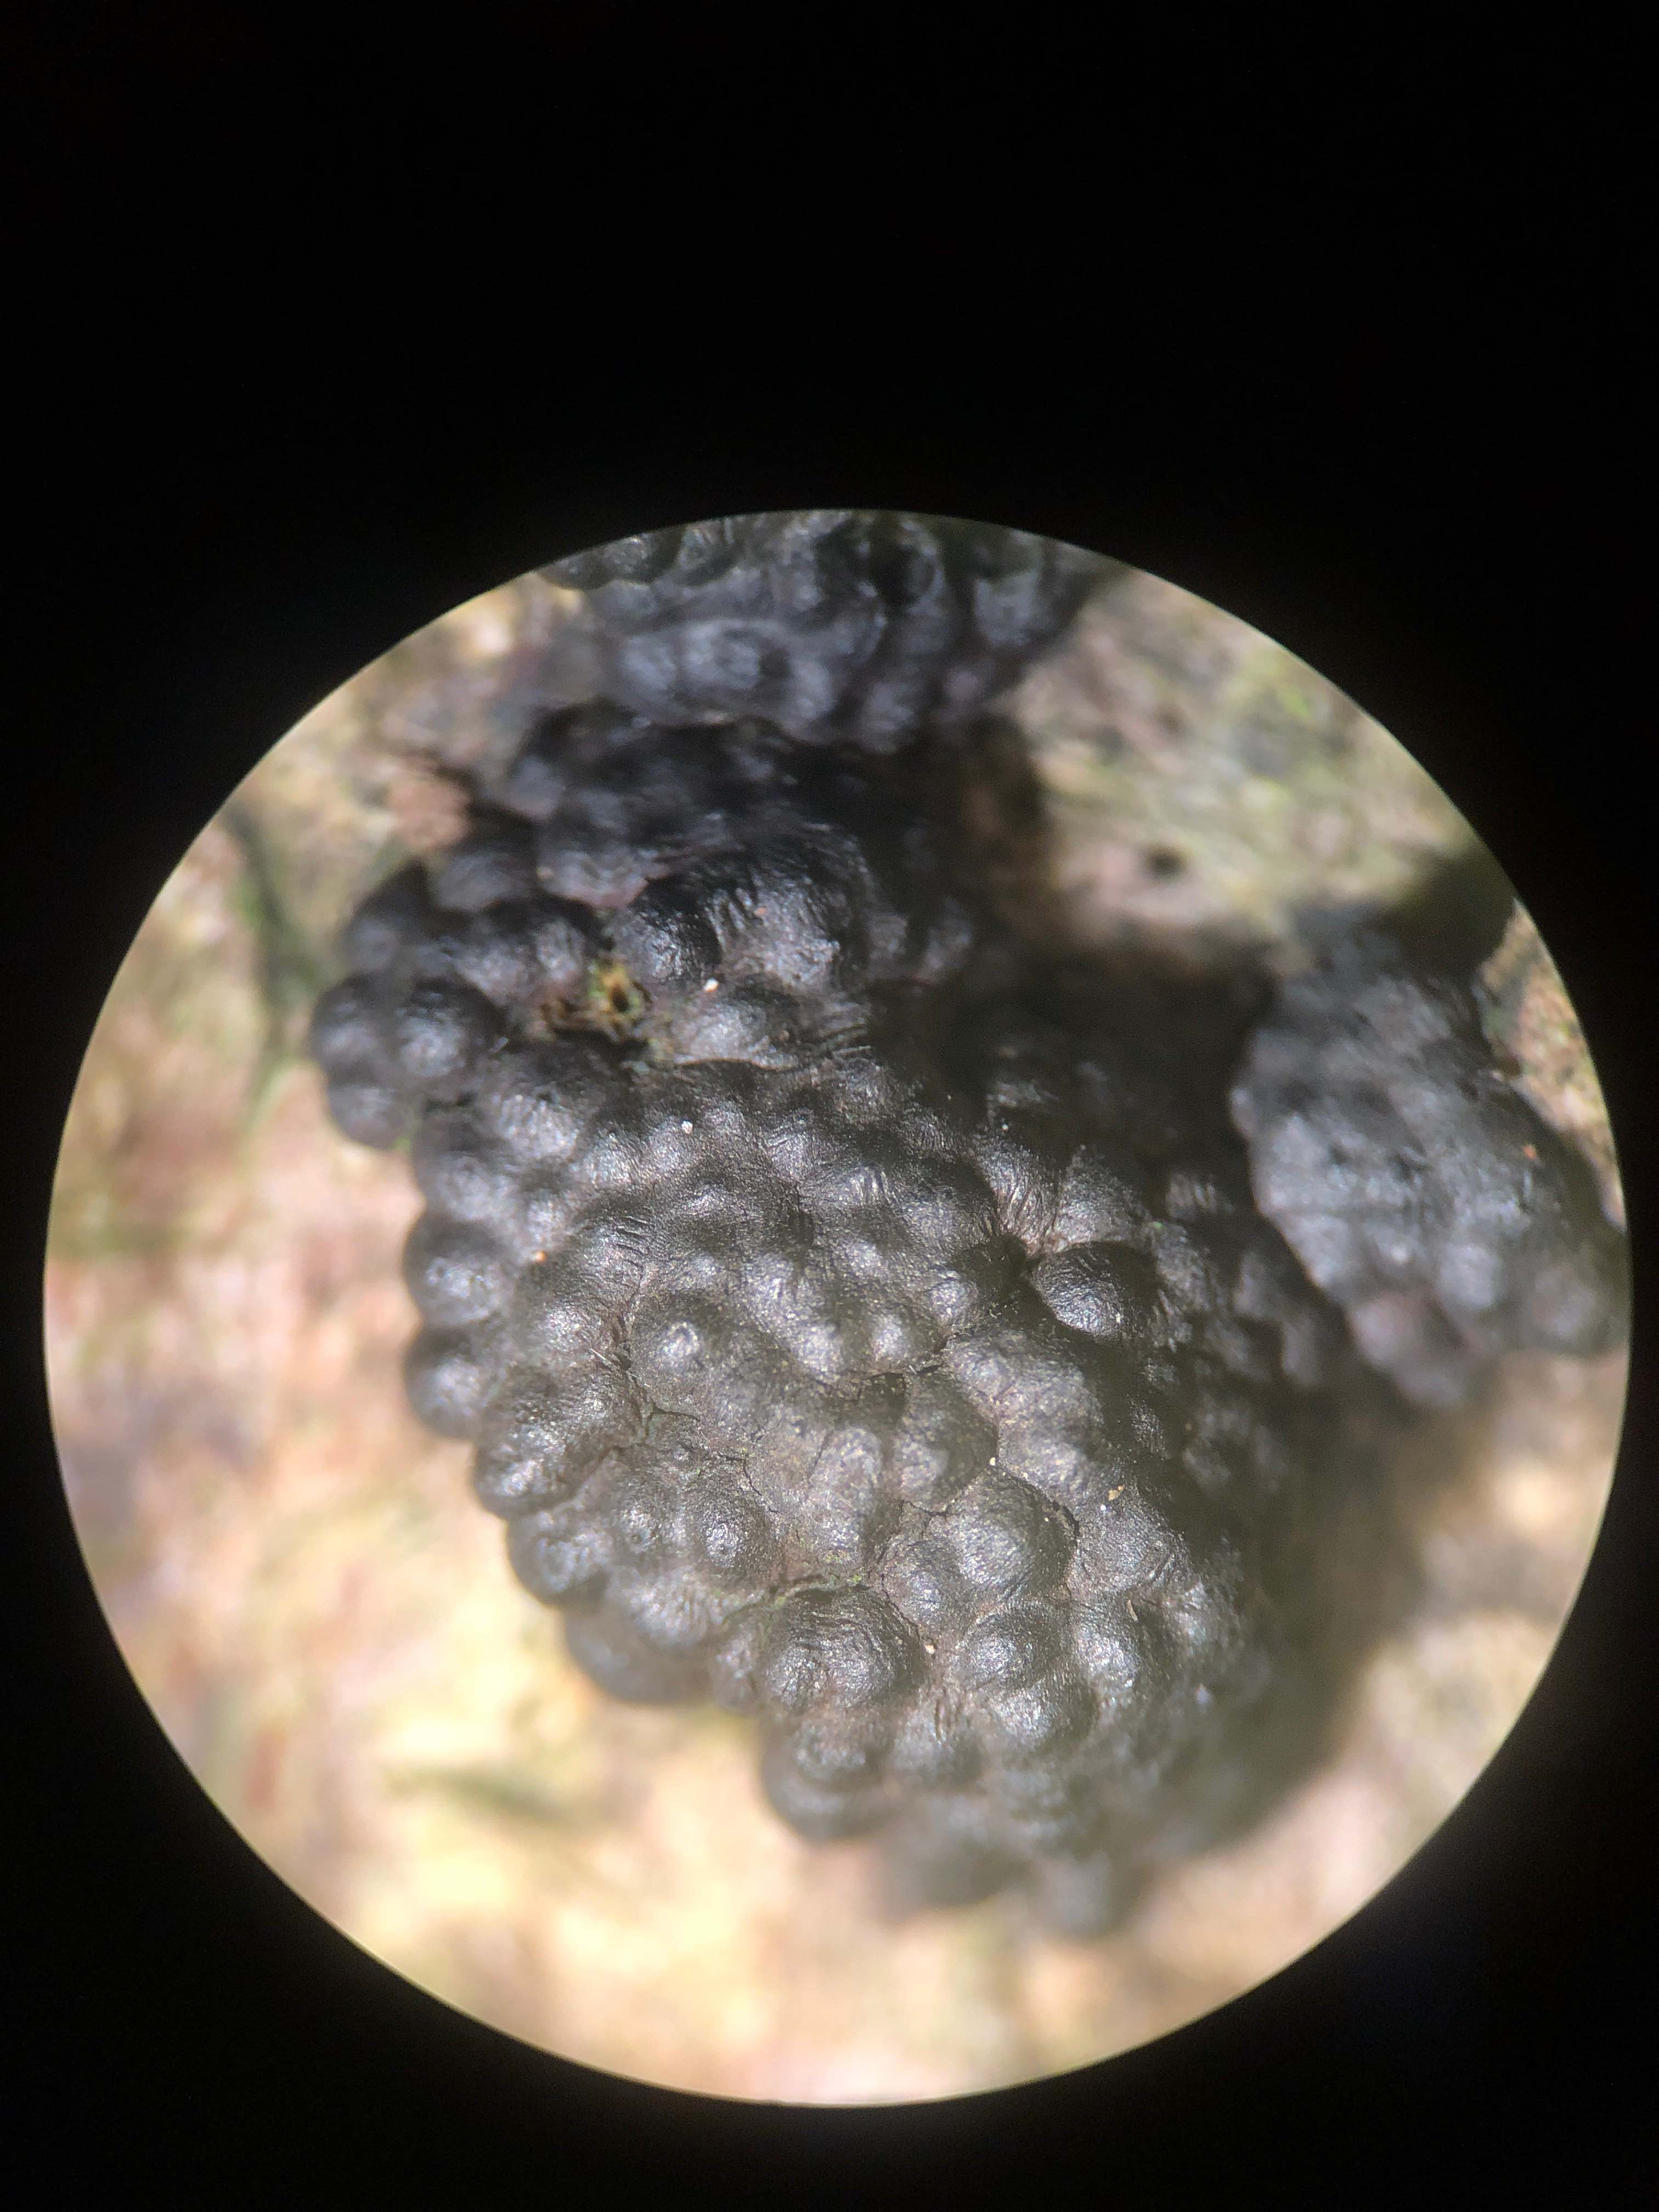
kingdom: Fungi
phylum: Ascomycota
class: Sordariomycetes
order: Xylariales
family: Hypoxylaceae
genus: Jackrogersella
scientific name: Jackrogersella cohaerens
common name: sammenflydende kulbær
